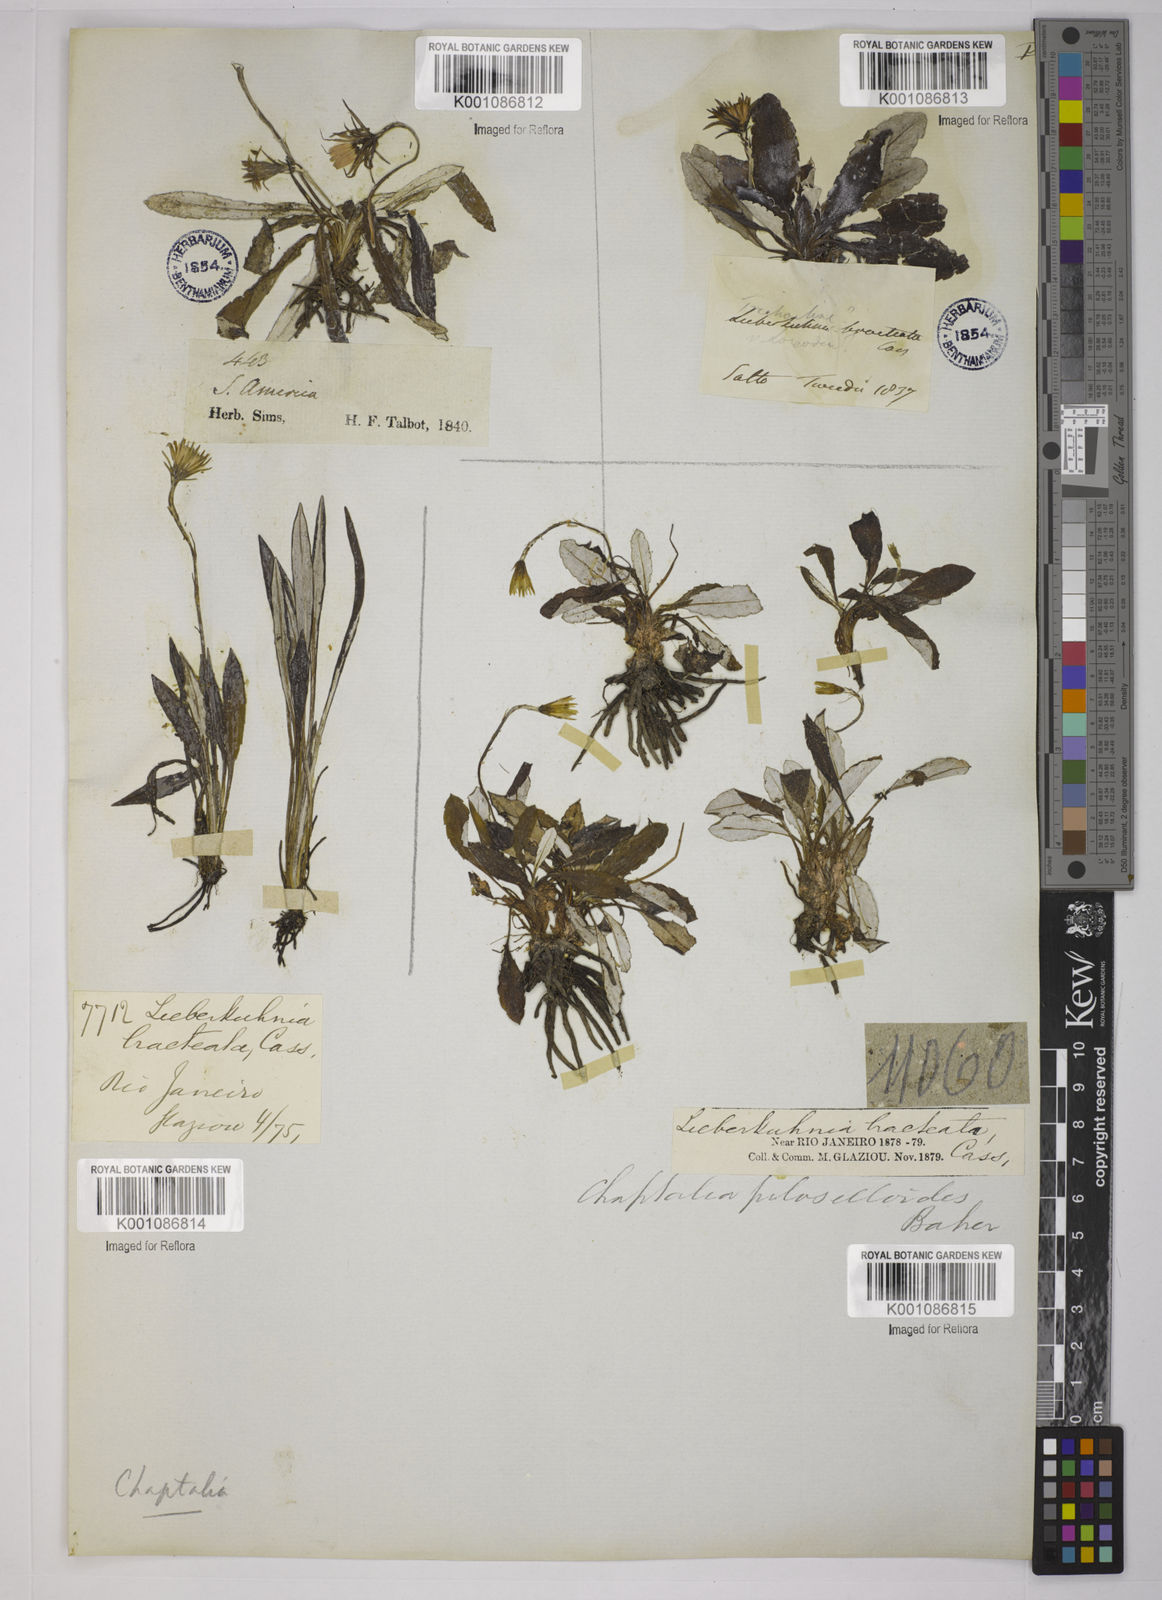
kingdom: Plantae
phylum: Tracheophyta
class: Magnoliopsida
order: Asterales
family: Asteraceae
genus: Chaptalia
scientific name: Chaptalia piloselloides
